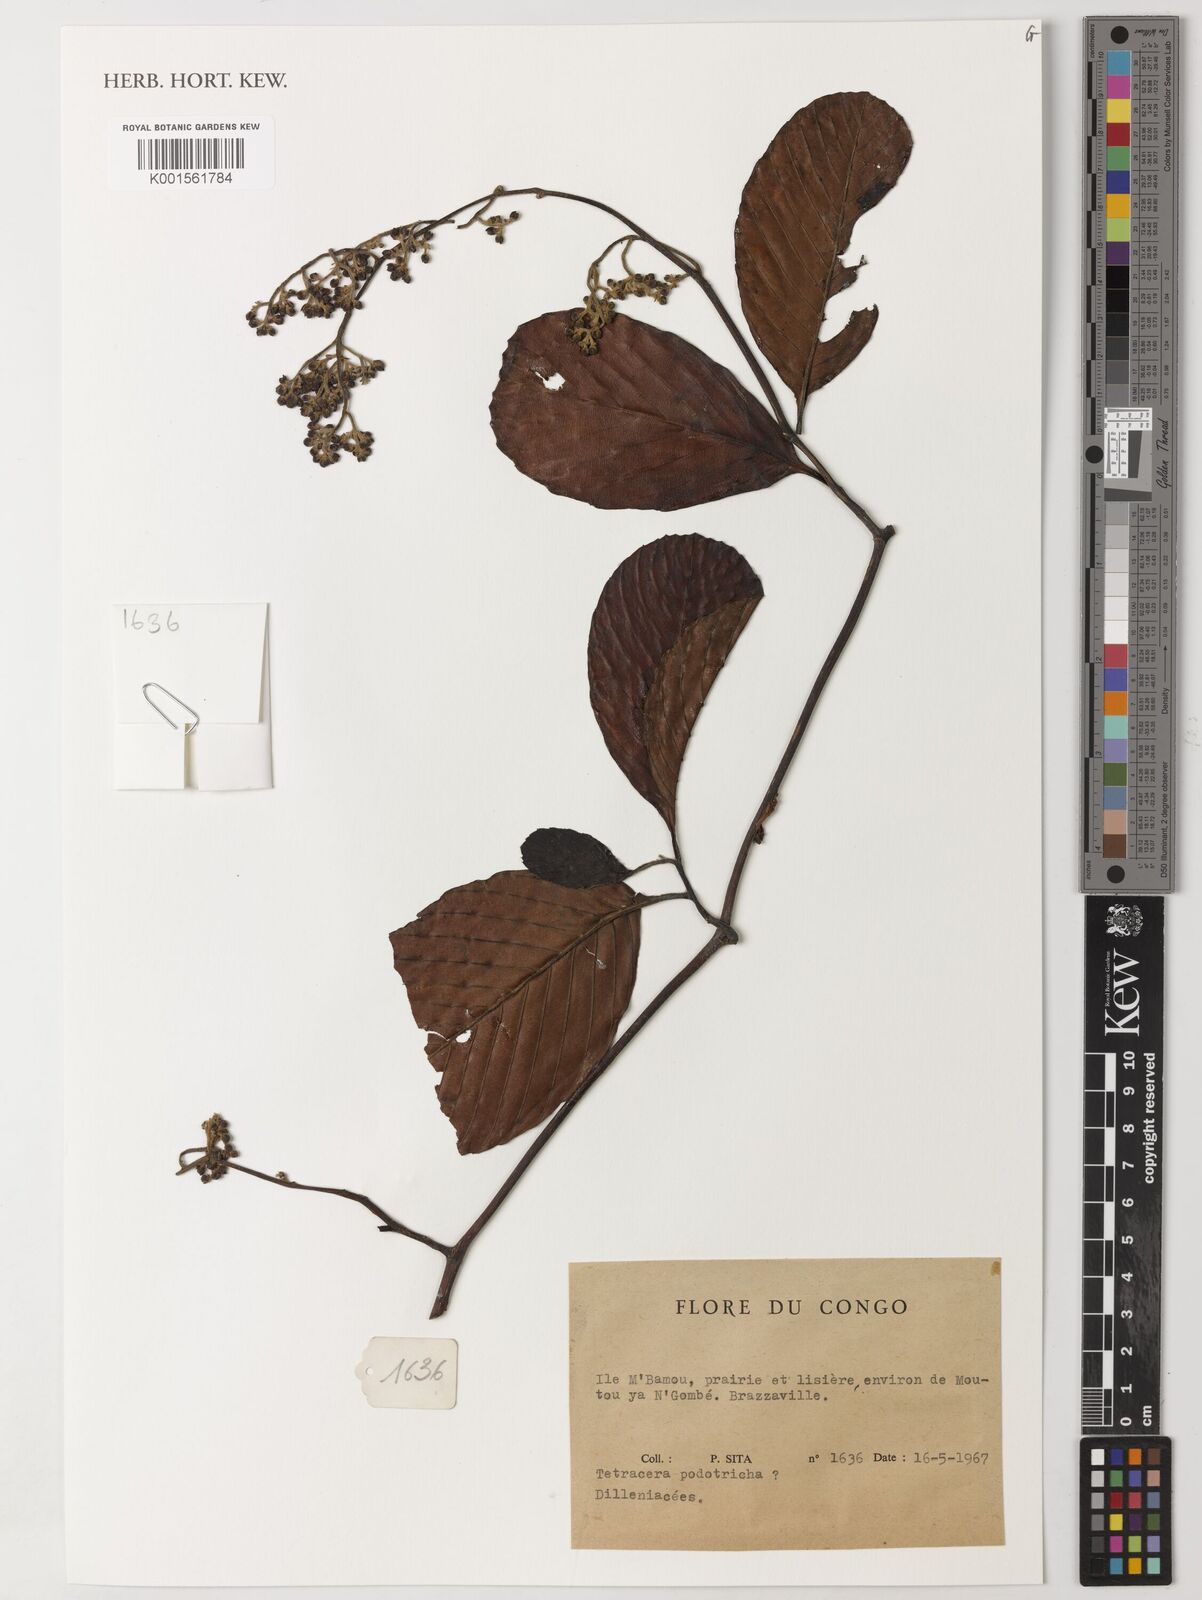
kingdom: Plantae
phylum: Tracheophyta
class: Magnoliopsida
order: Dilleniales
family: Dilleniaceae
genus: Tetracera
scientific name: Tetracera alnifolia
